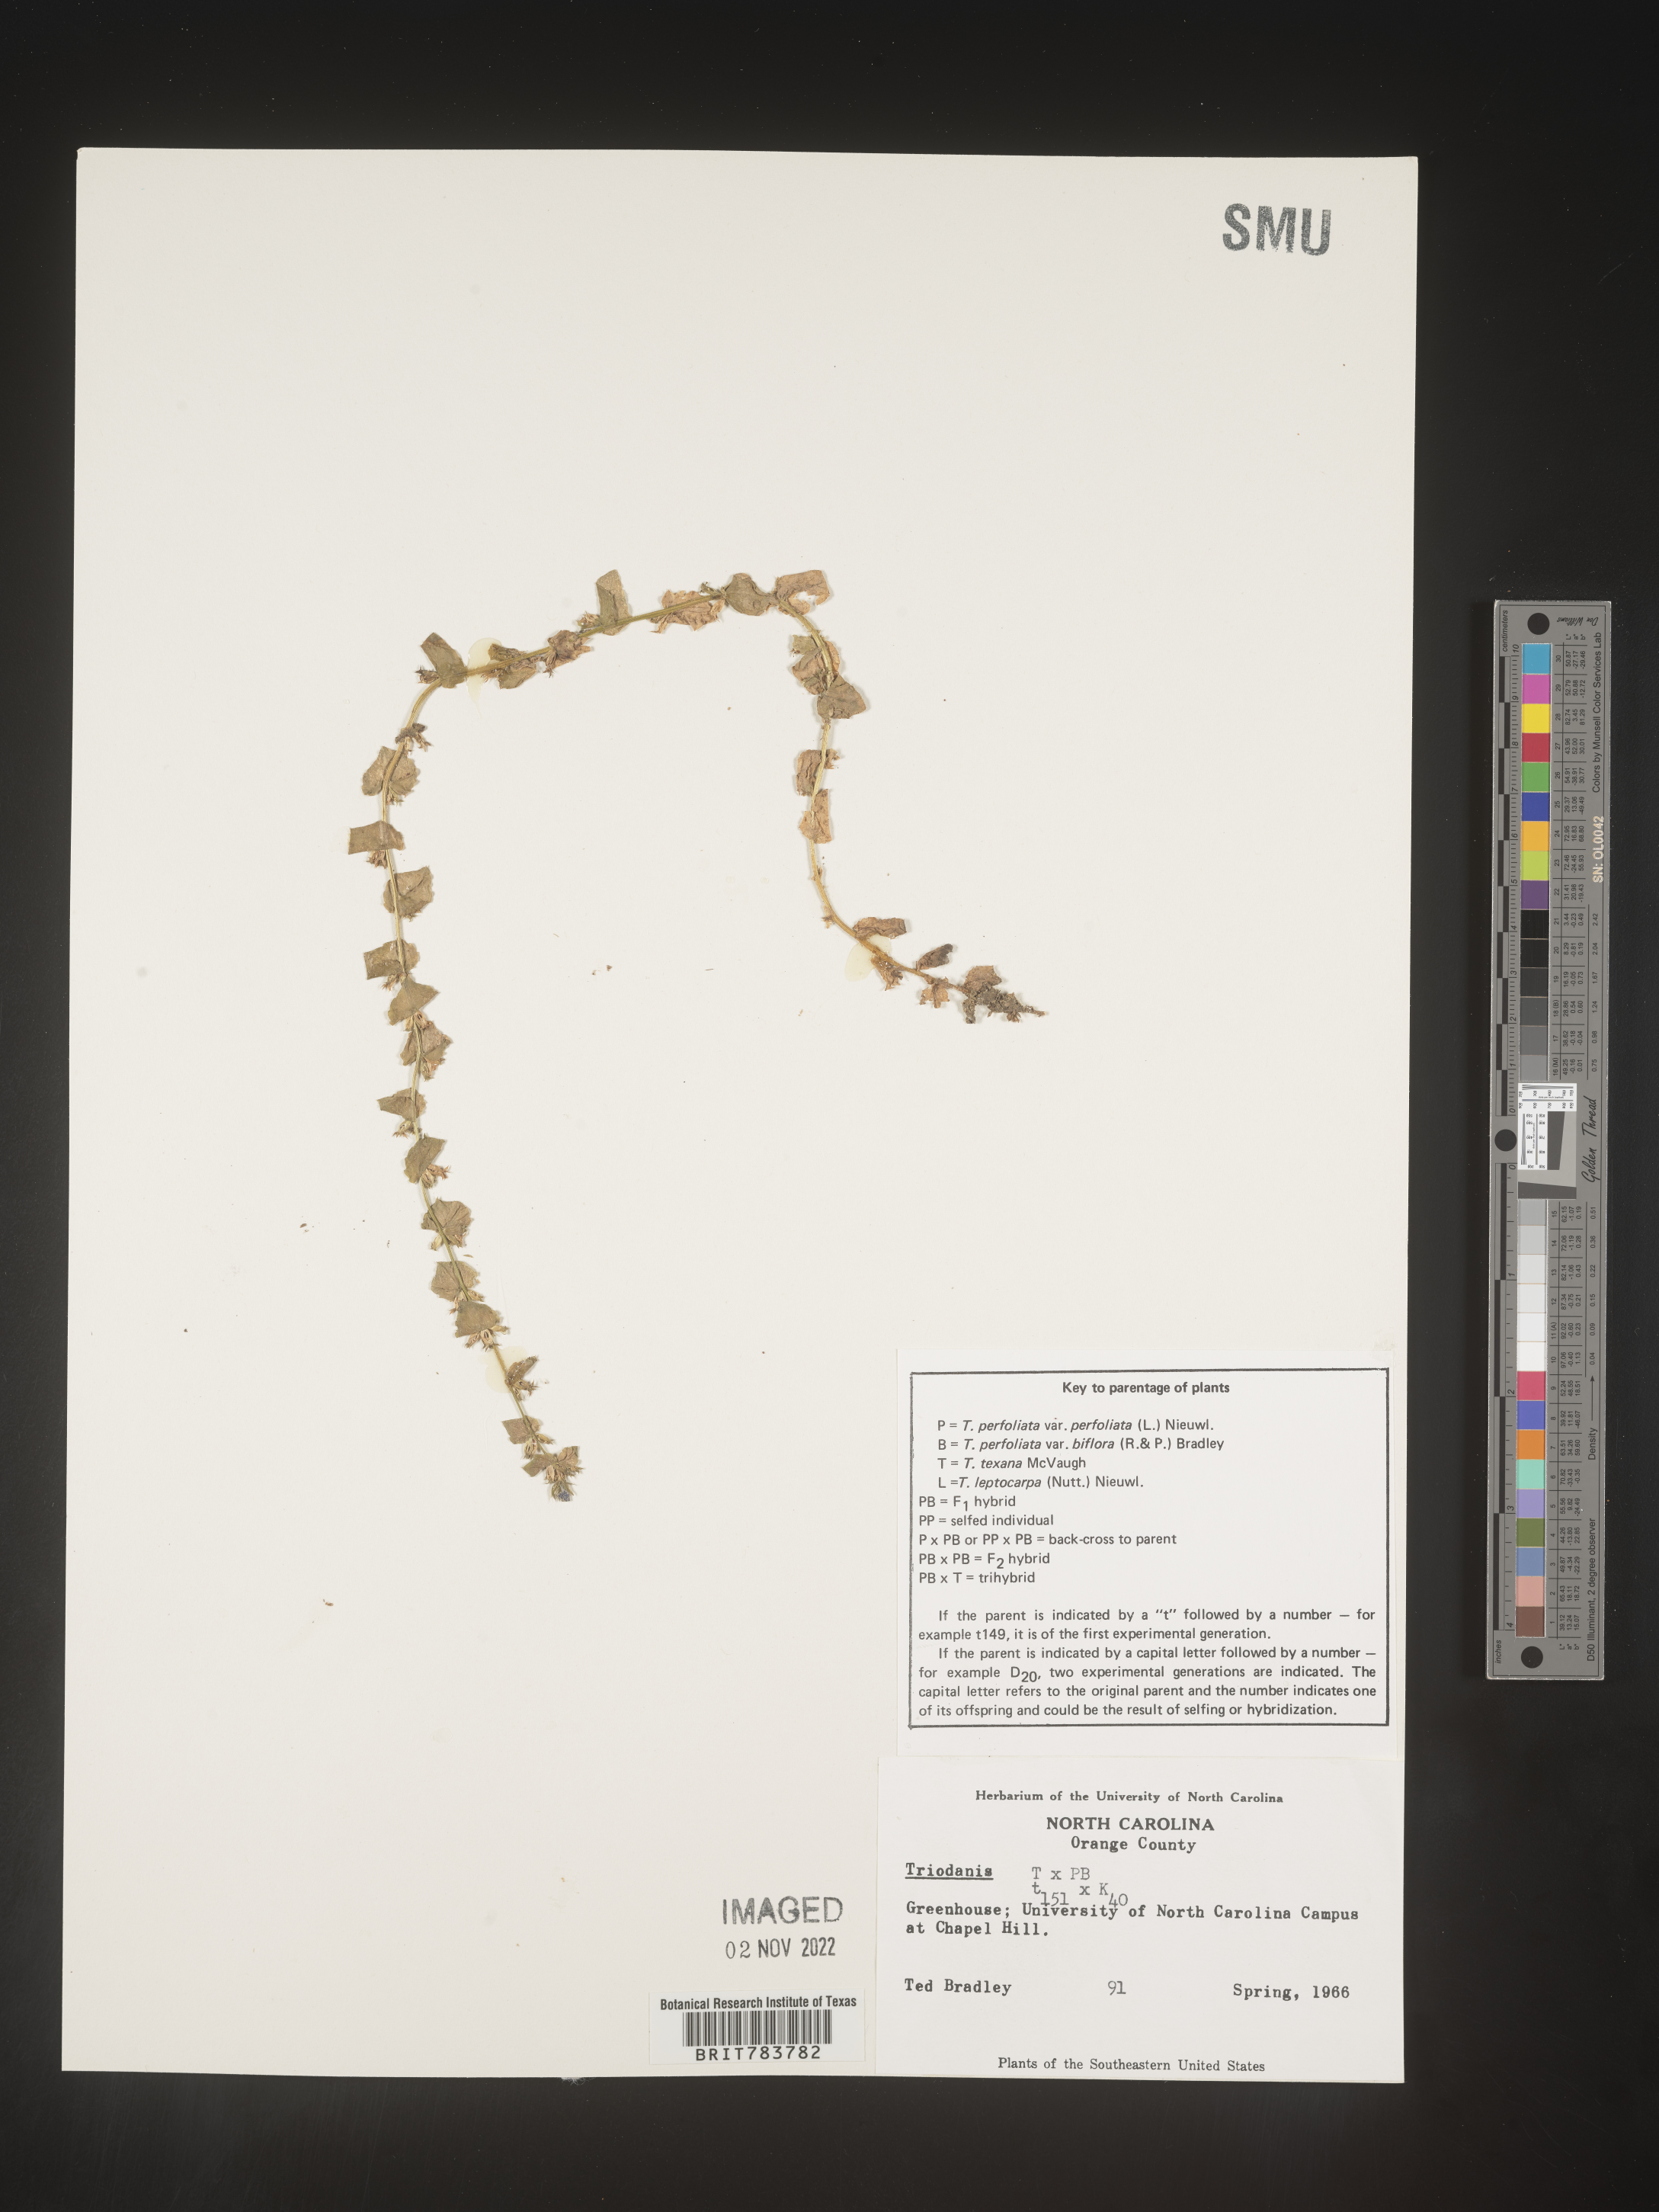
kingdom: Plantae
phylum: Tracheophyta
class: Magnoliopsida
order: Asterales
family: Campanulaceae
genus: Triodanis
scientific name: Triodanis
